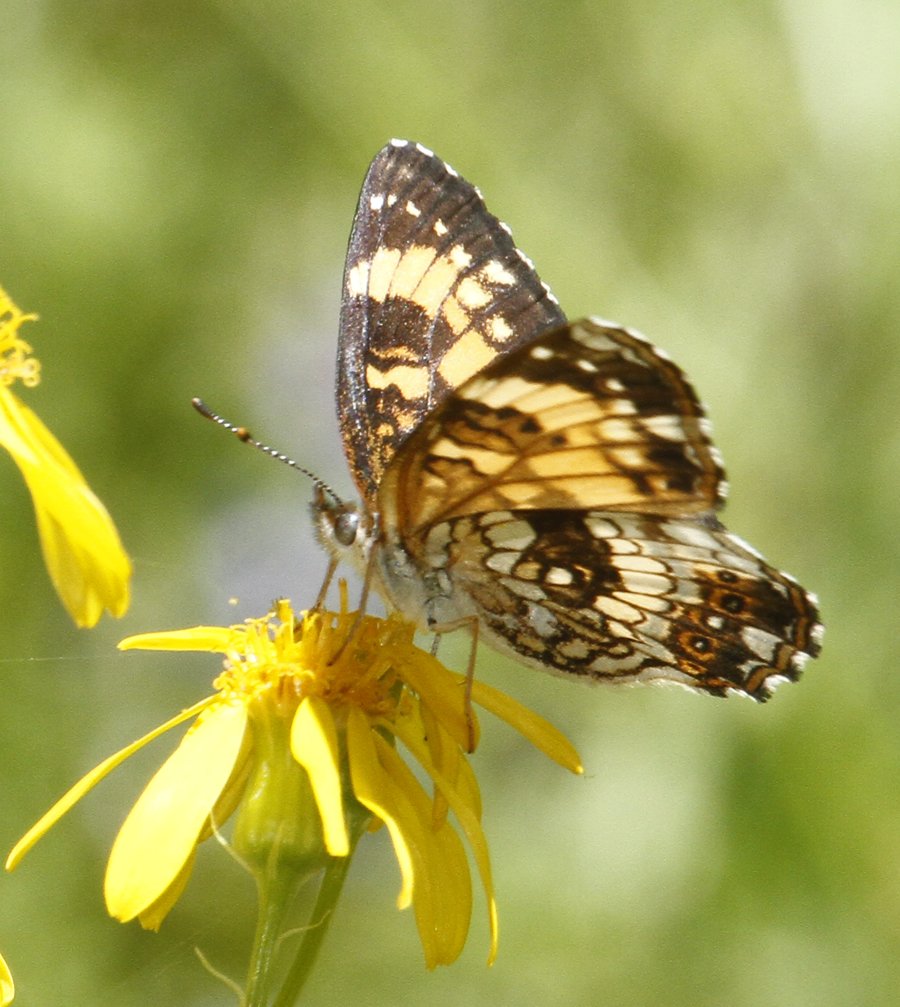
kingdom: Animalia
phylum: Arthropoda
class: Insecta
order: Lepidoptera
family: Nymphalidae
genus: Chlosyne
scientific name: Chlosyne nycteis
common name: Silvery Checkerspot
